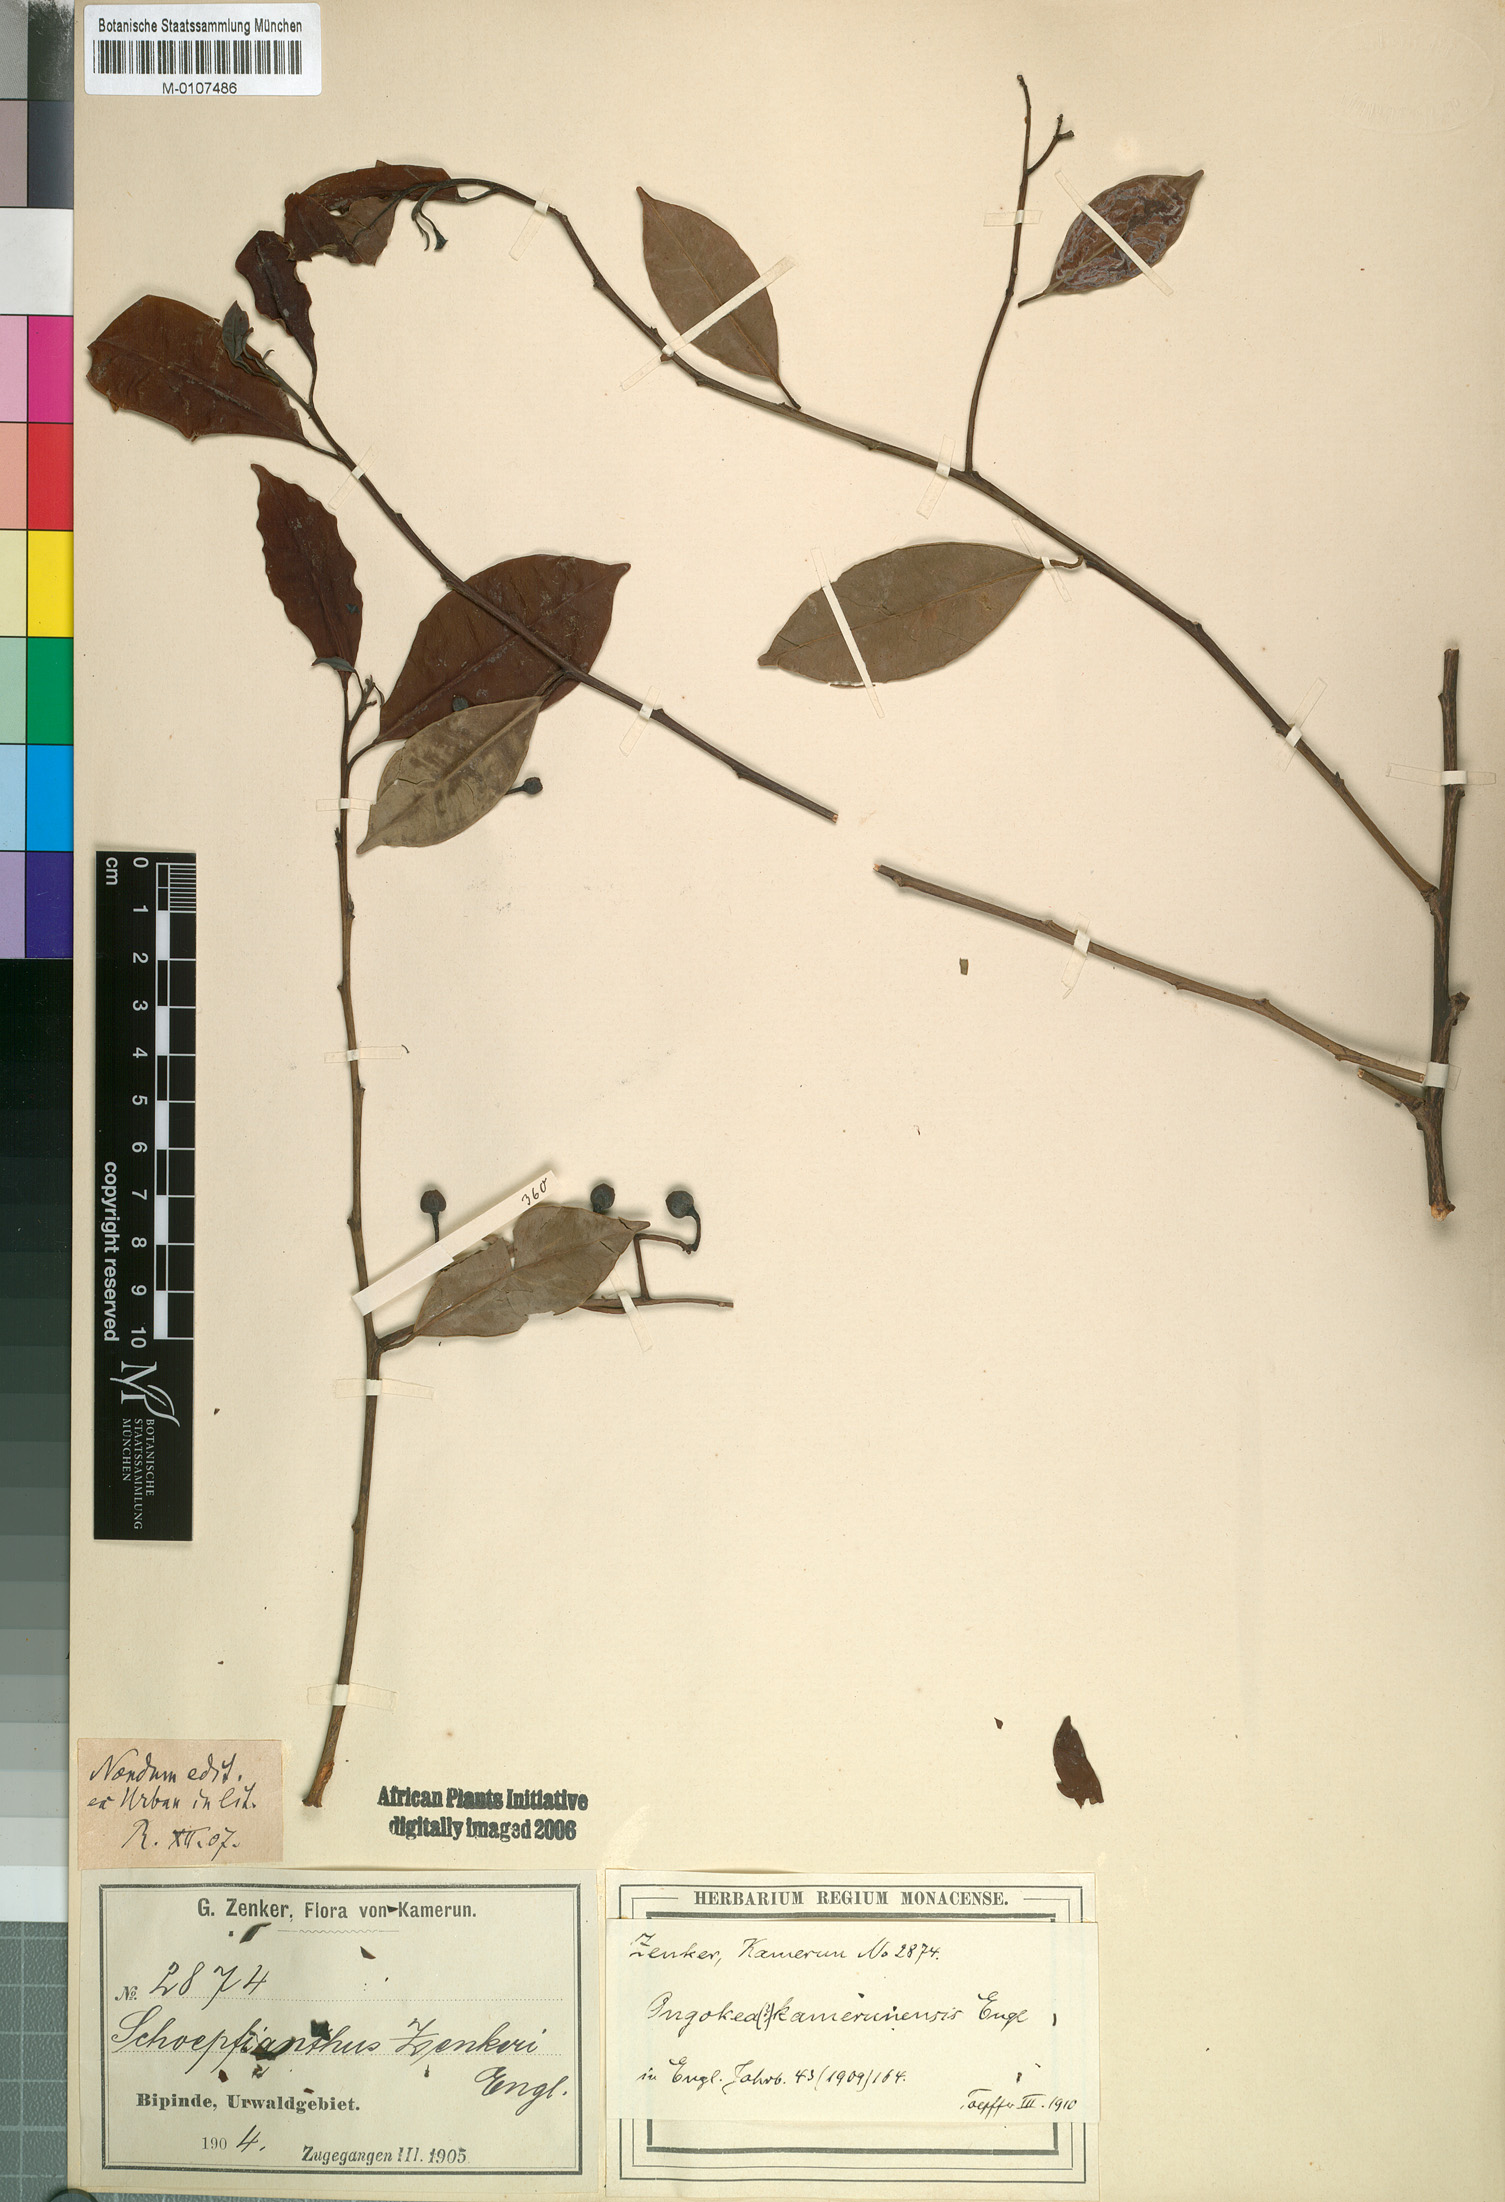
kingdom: Plantae
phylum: Tracheophyta
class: Magnoliopsida
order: Santalales
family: Aptandraceae
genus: Ongokea
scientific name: Ongokea gore
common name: Boleko-nut
